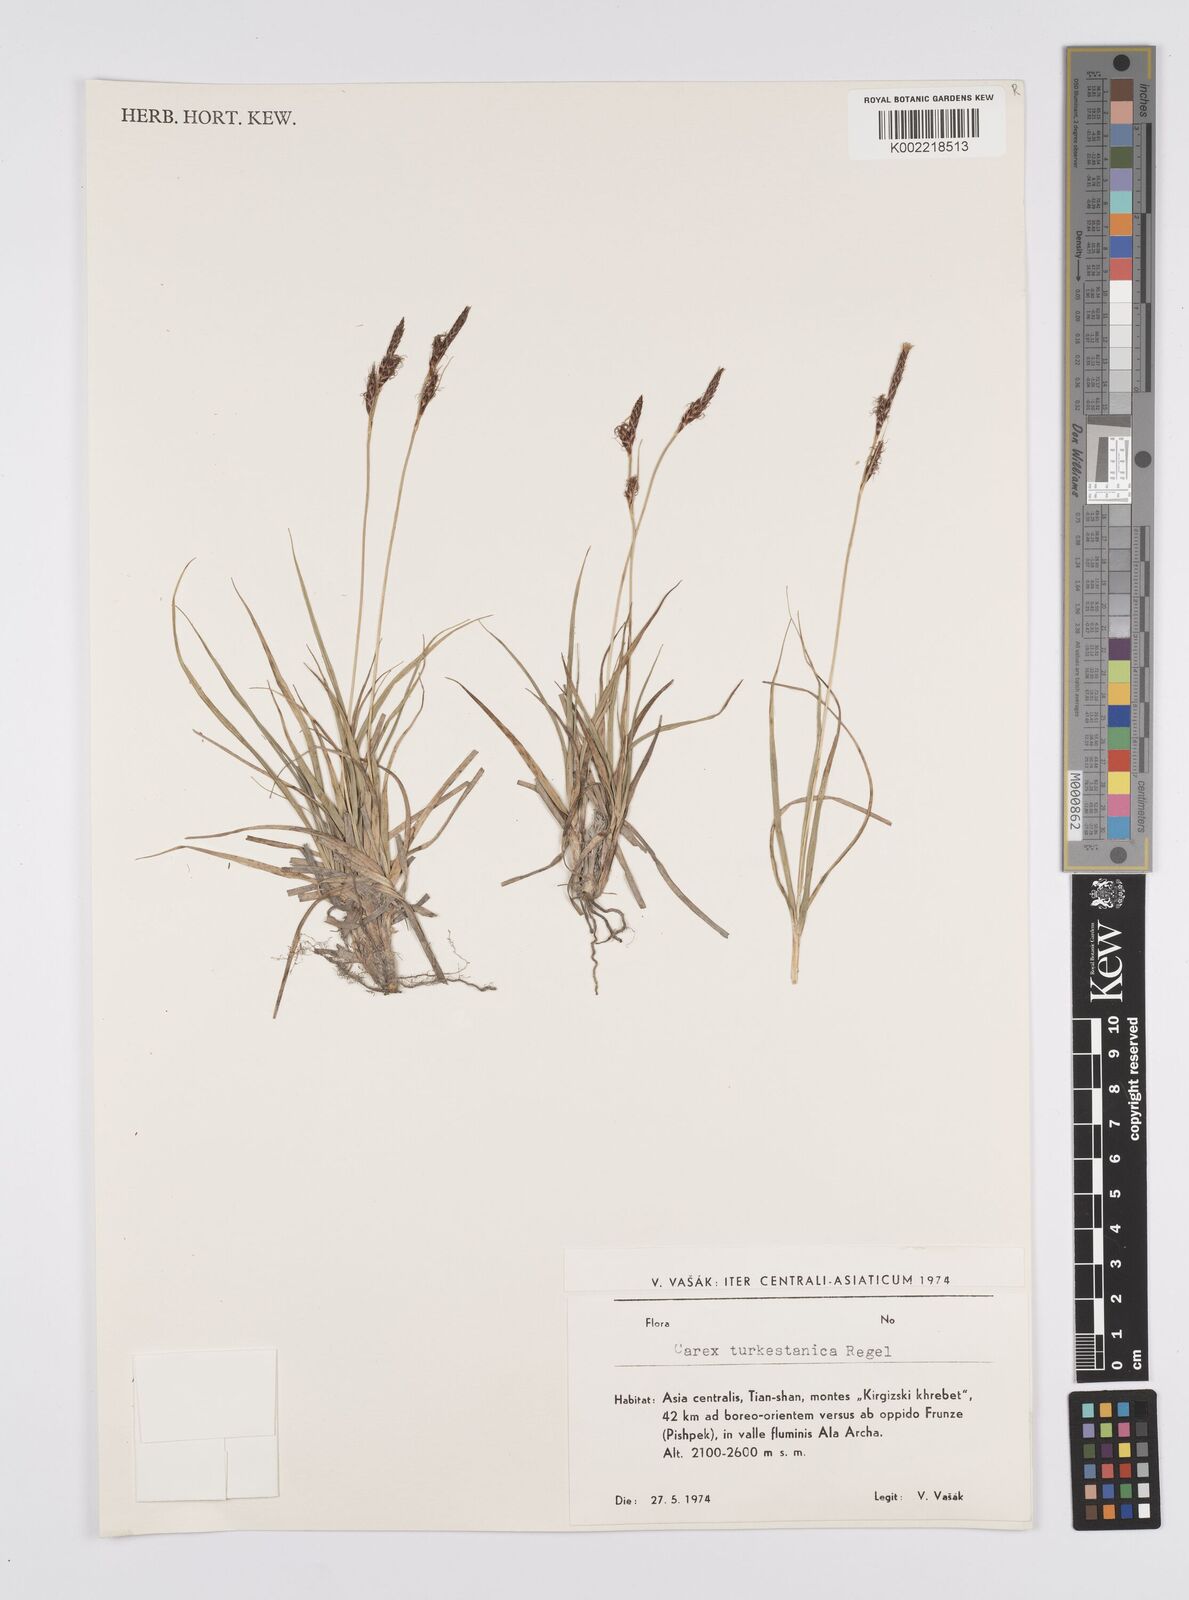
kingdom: Plantae
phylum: Tracheophyta
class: Liliopsida
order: Poales
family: Cyperaceae
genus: Carex
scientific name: Carex liparocarpos
